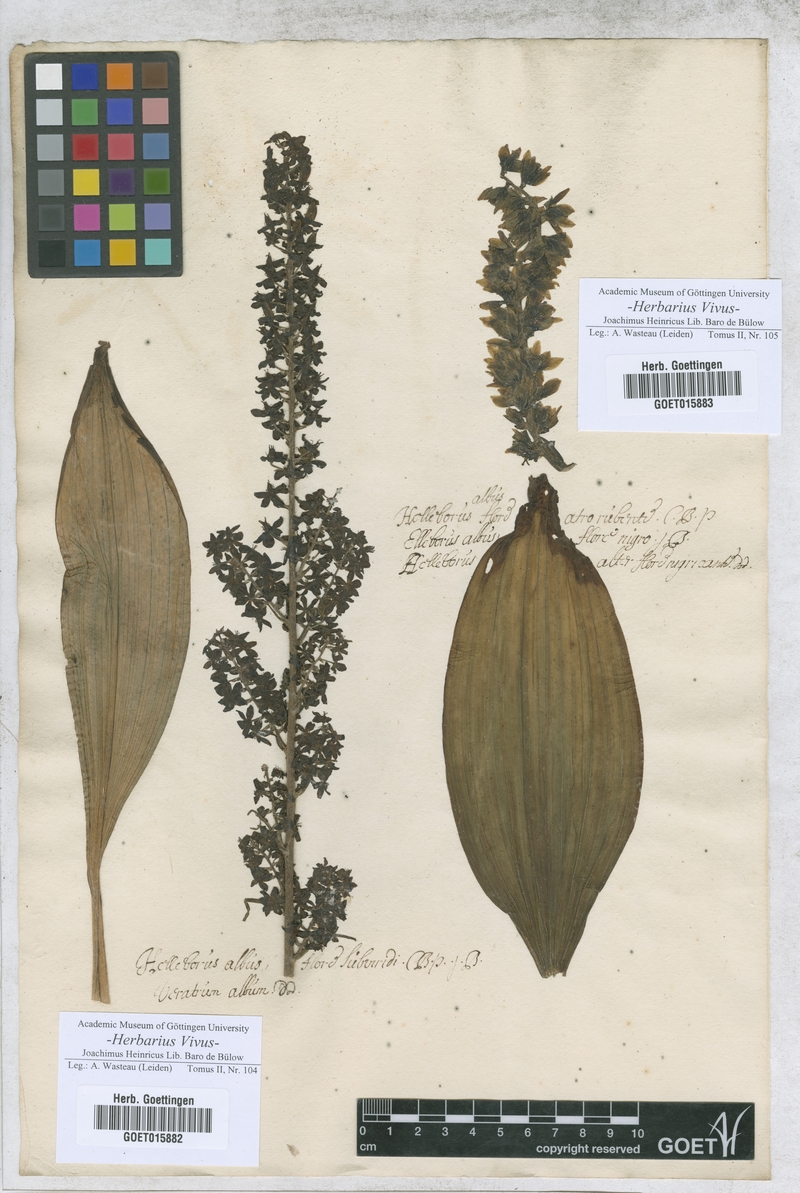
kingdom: Plantae
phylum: Tracheophyta
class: Liliopsida
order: Liliales
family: Melanthiaceae
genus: Veratrum
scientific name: Veratrum album
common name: White veratrum
